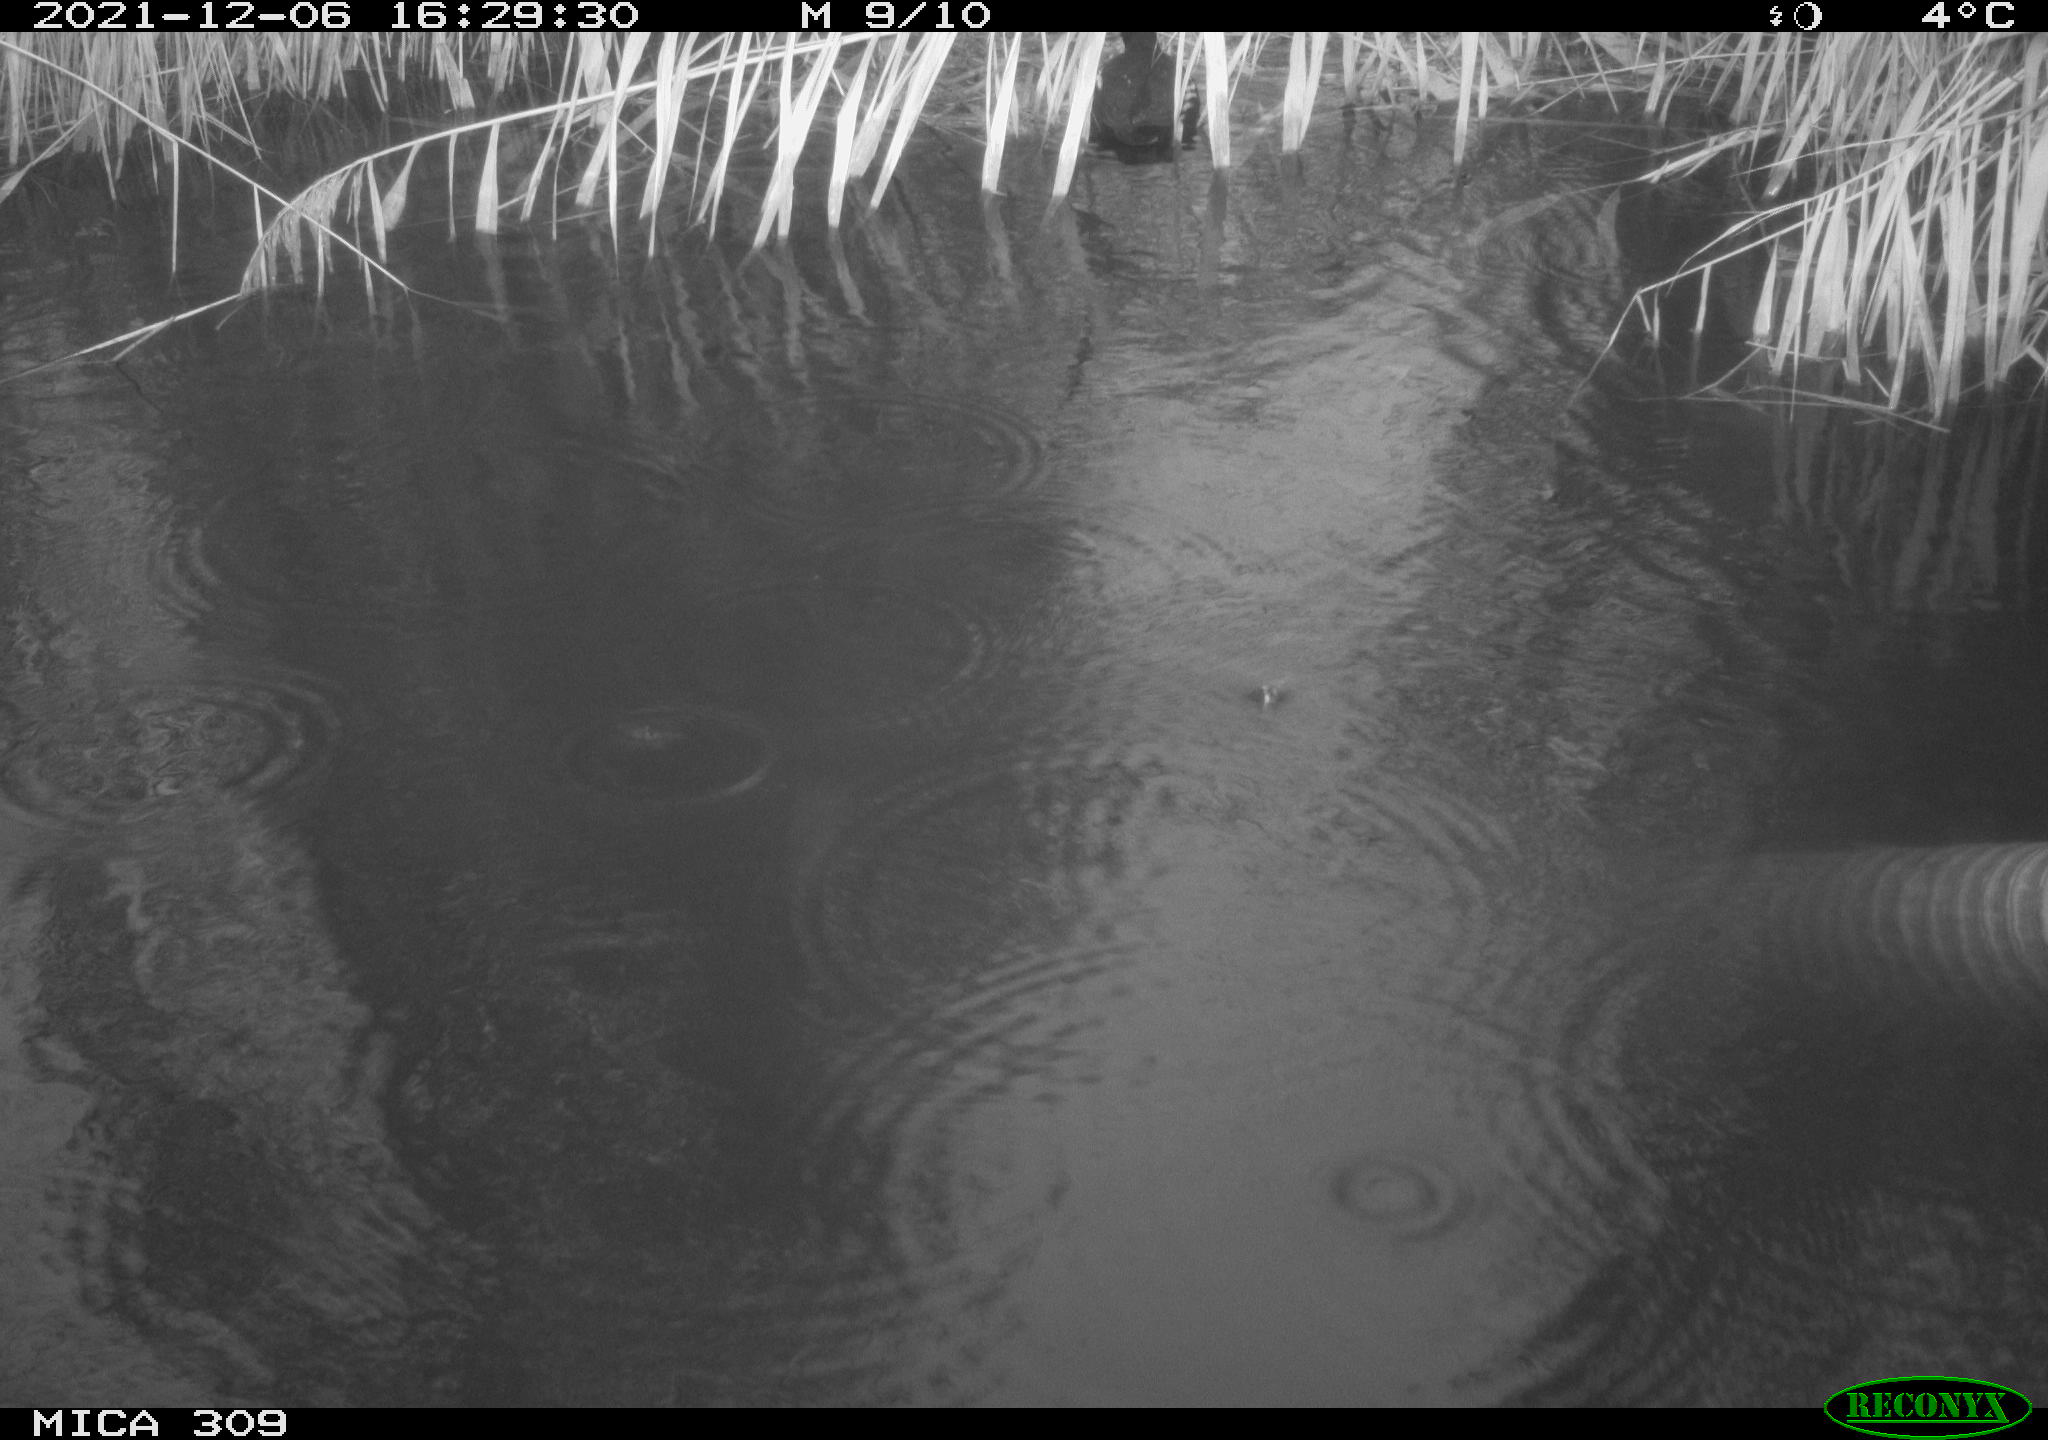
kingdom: Animalia
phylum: Chordata
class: Aves
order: Gruiformes
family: Rallidae
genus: Fulica
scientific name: Fulica atra
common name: Eurasian coot
